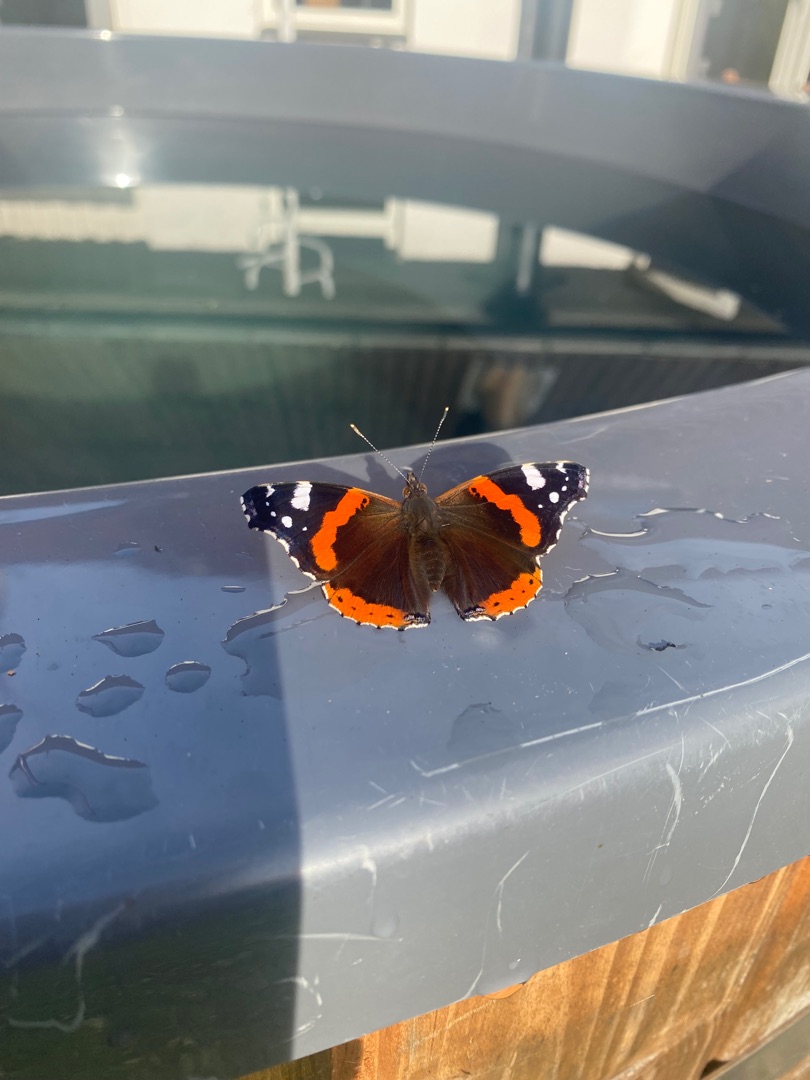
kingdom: Animalia
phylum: Arthropoda
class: Insecta
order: Lepidoptera
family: Nymphalidae
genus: Vanessa
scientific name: Vanessa atalanta
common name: Admiral
